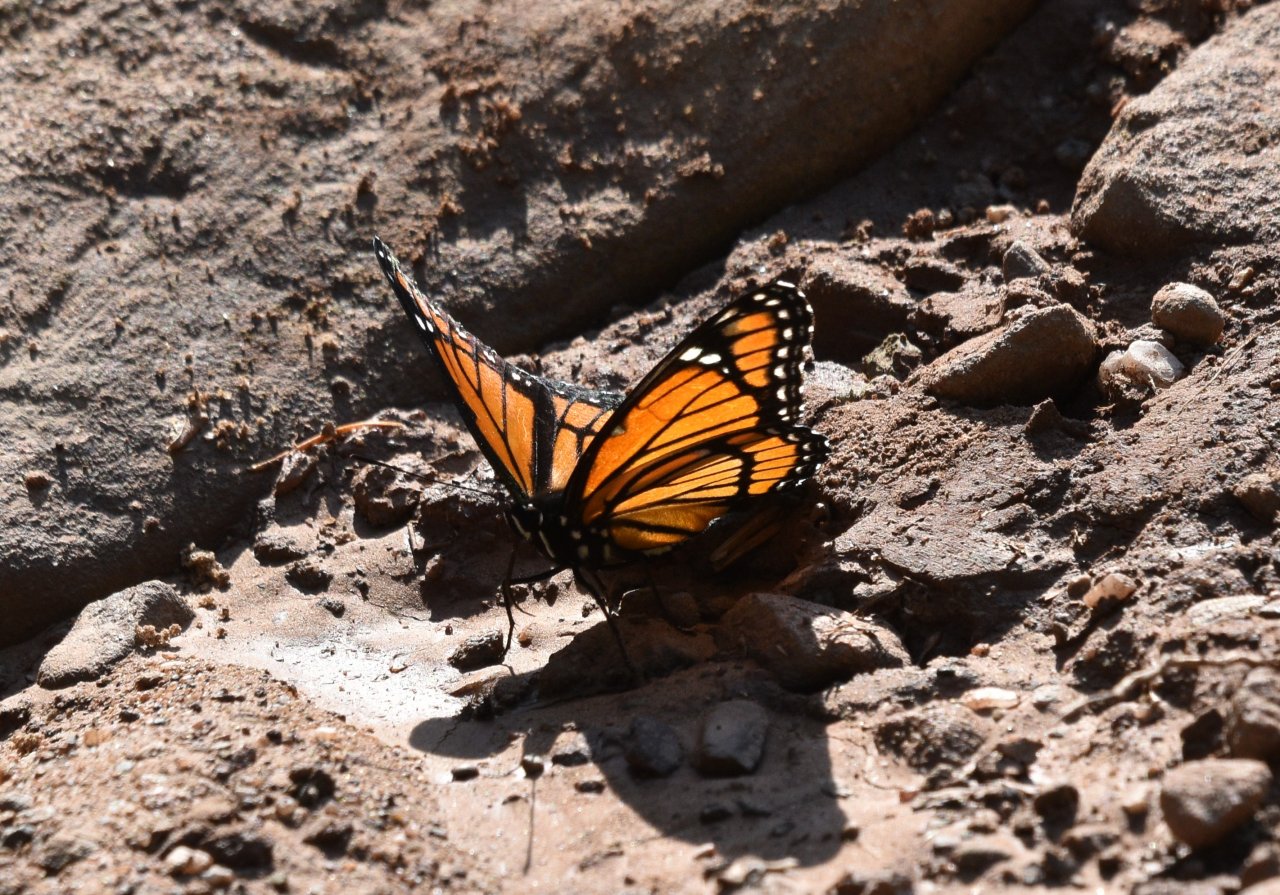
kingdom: Animalia
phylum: Arthropoda
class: Insecta
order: Lepidoptera
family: Nymphalidae
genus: Limenitis
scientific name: Limenitis archippus
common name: Viceroy
